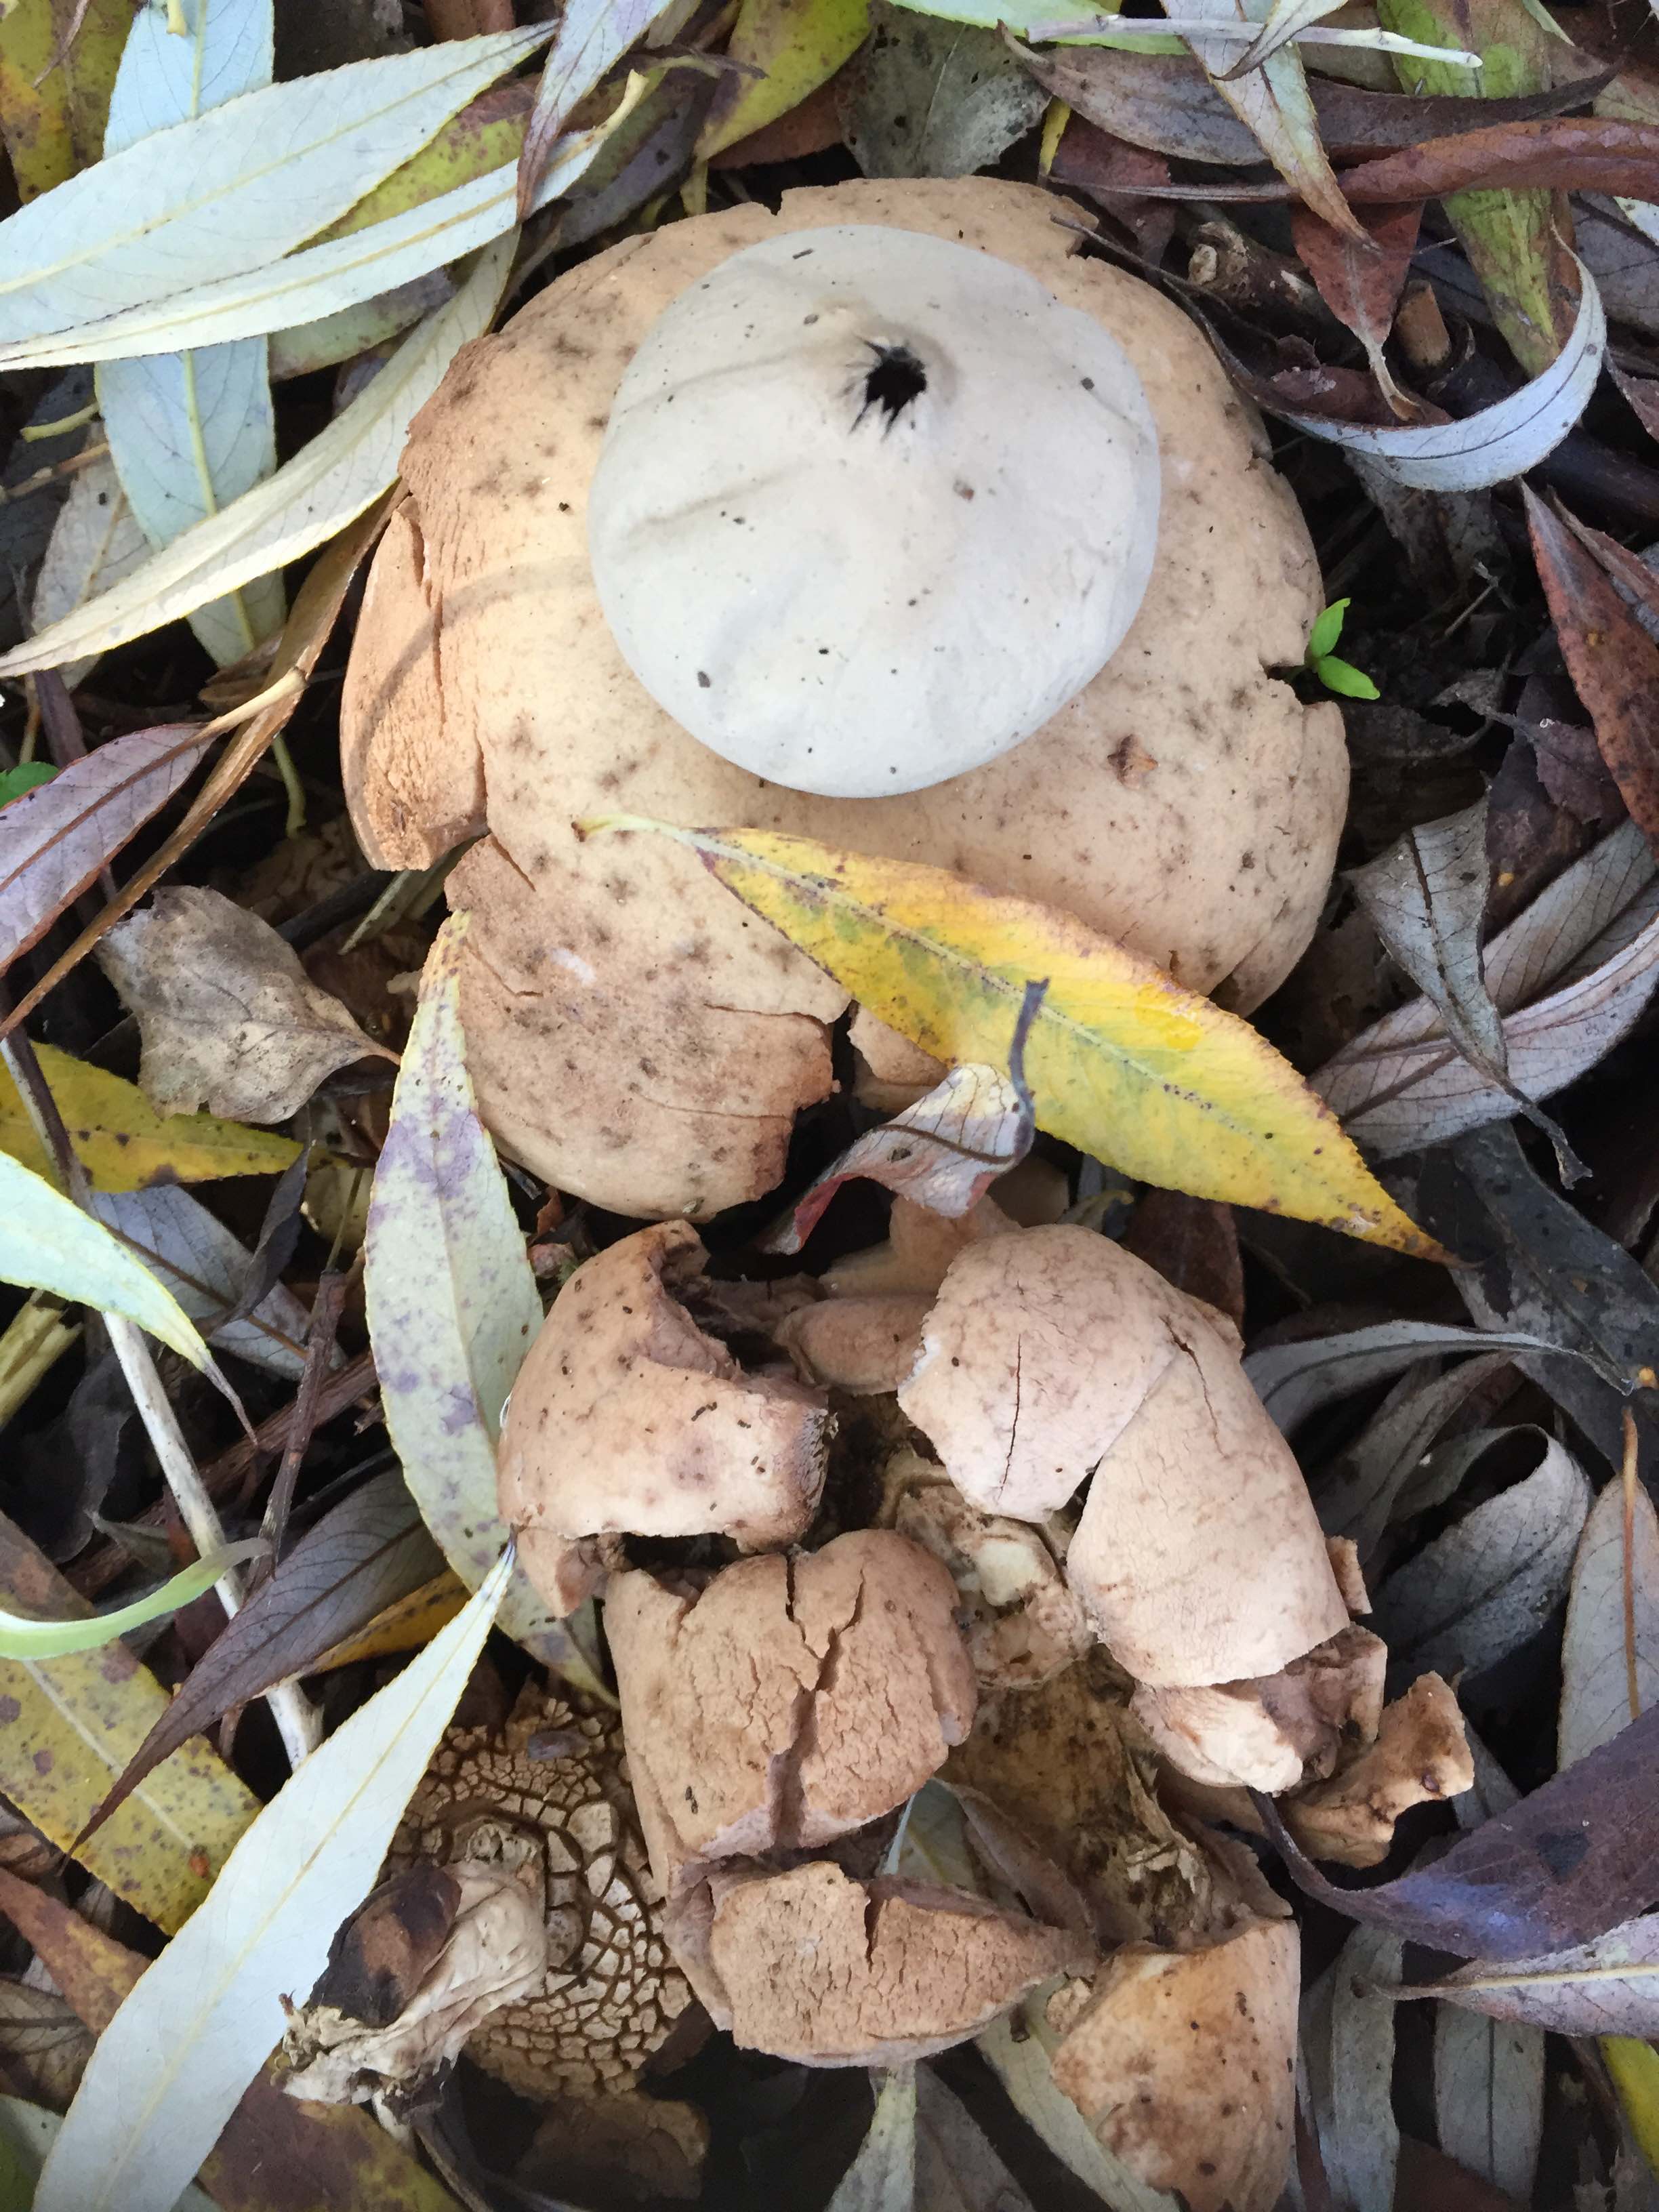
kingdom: Fungi
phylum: Basidiomycota
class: Agaricomycetes
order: Geastrales
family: Geastraceae
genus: Geastrum
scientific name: Geastrum fimbriatum
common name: frynset stjernebold
